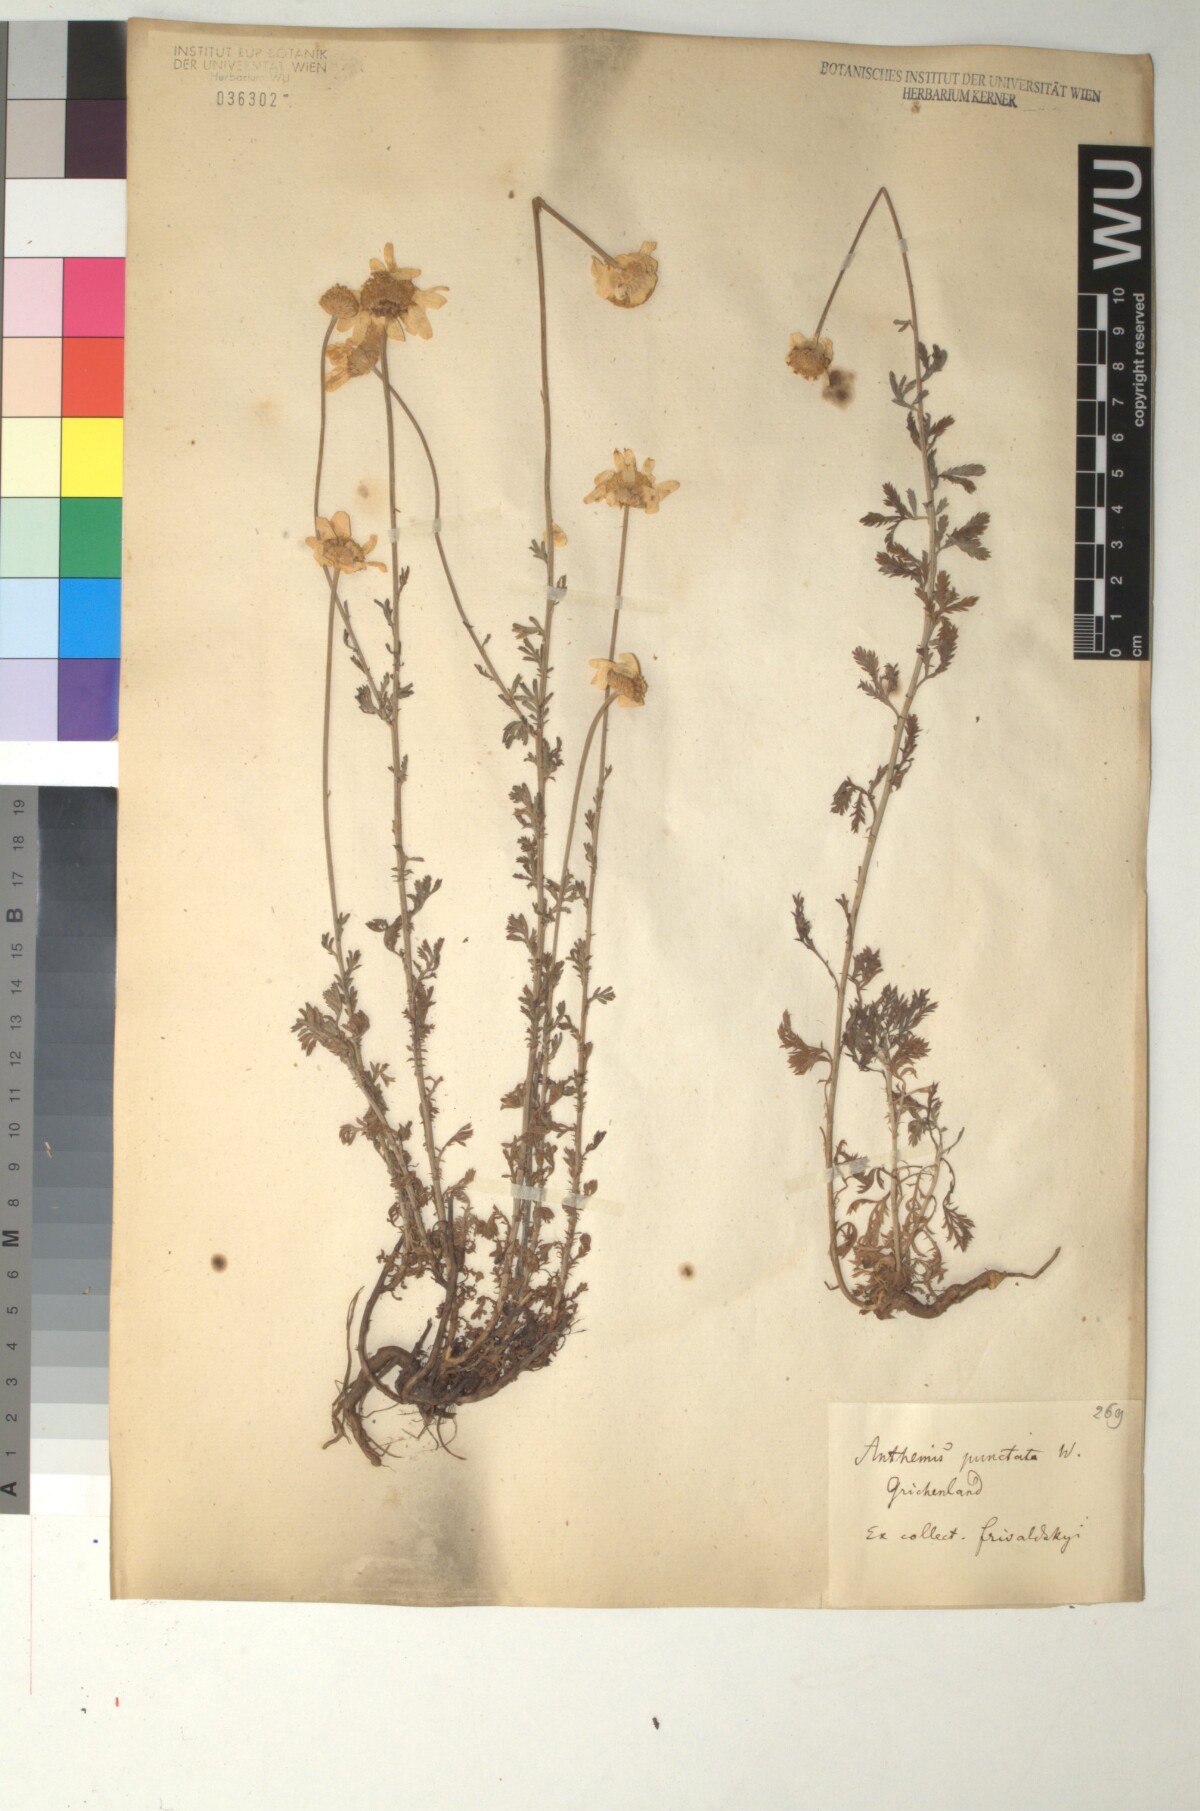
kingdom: Plantae
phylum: Tracheophyta
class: Magnoliopsida
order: Asterales
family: Asteraceae
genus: Anthemis
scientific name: Anthemis cretica
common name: Mountain dog-daisy
